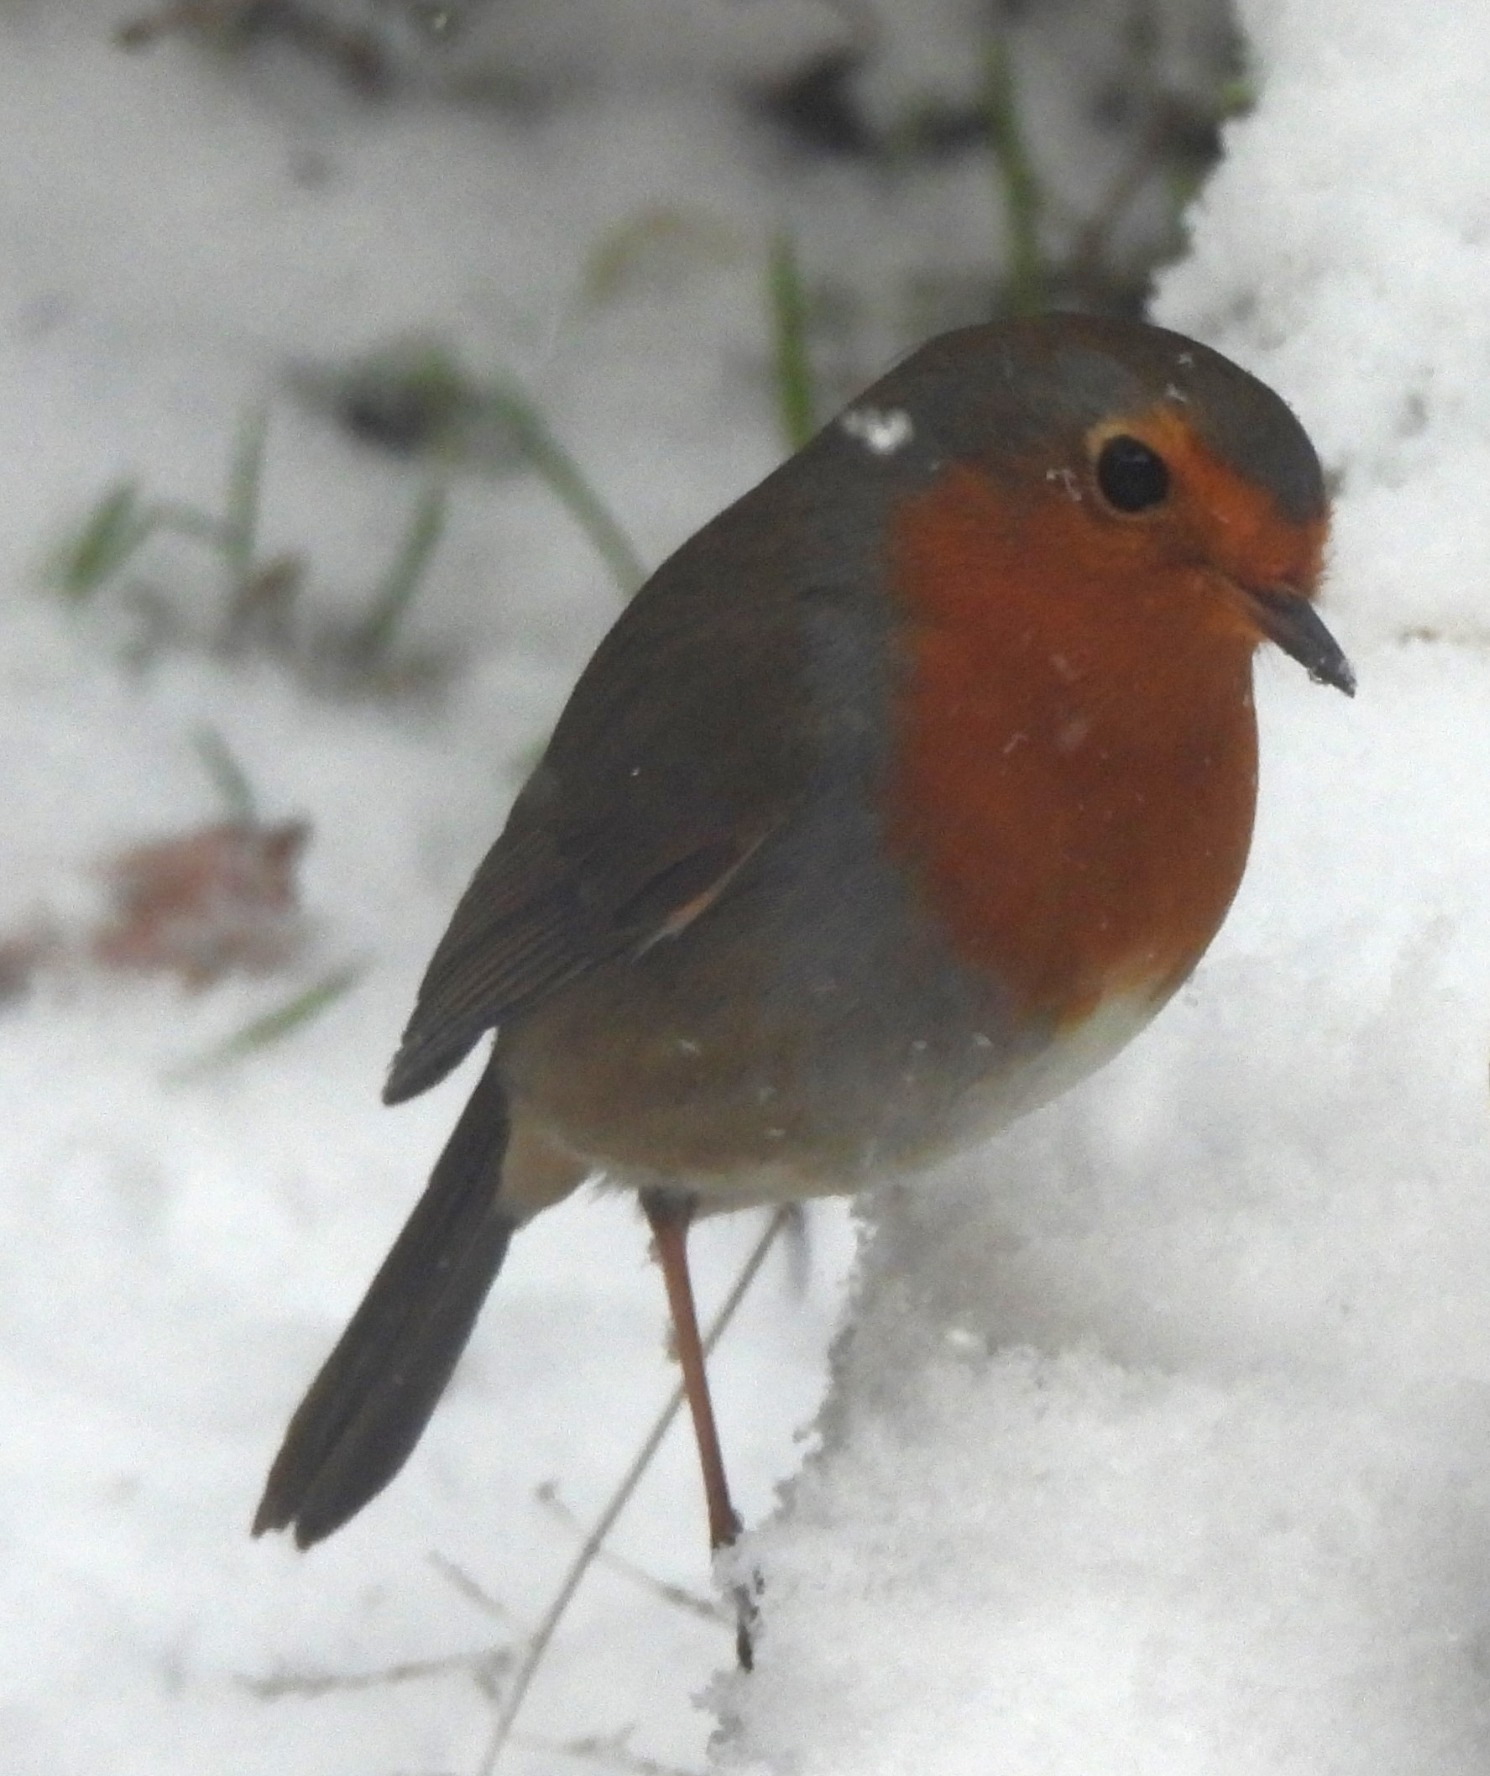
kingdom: Animalia
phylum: Chordata
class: Aves
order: Passeriformes
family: Muscicapidae
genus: Erithacus
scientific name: Erithacus rubecula
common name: Rødhals/rødkælk
